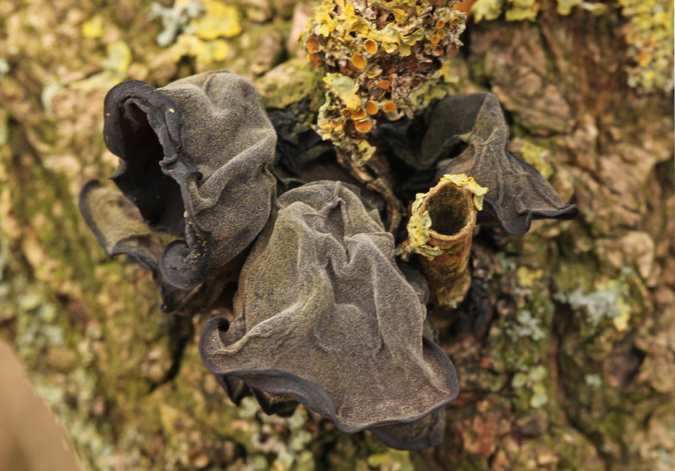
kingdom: Fungi
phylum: Basidiomycota
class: Agaricomycetes
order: Auriculariales
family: Auriculariaceae
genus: Auricularia
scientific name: Auricularia auricula-judae
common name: almindelig judasøre
